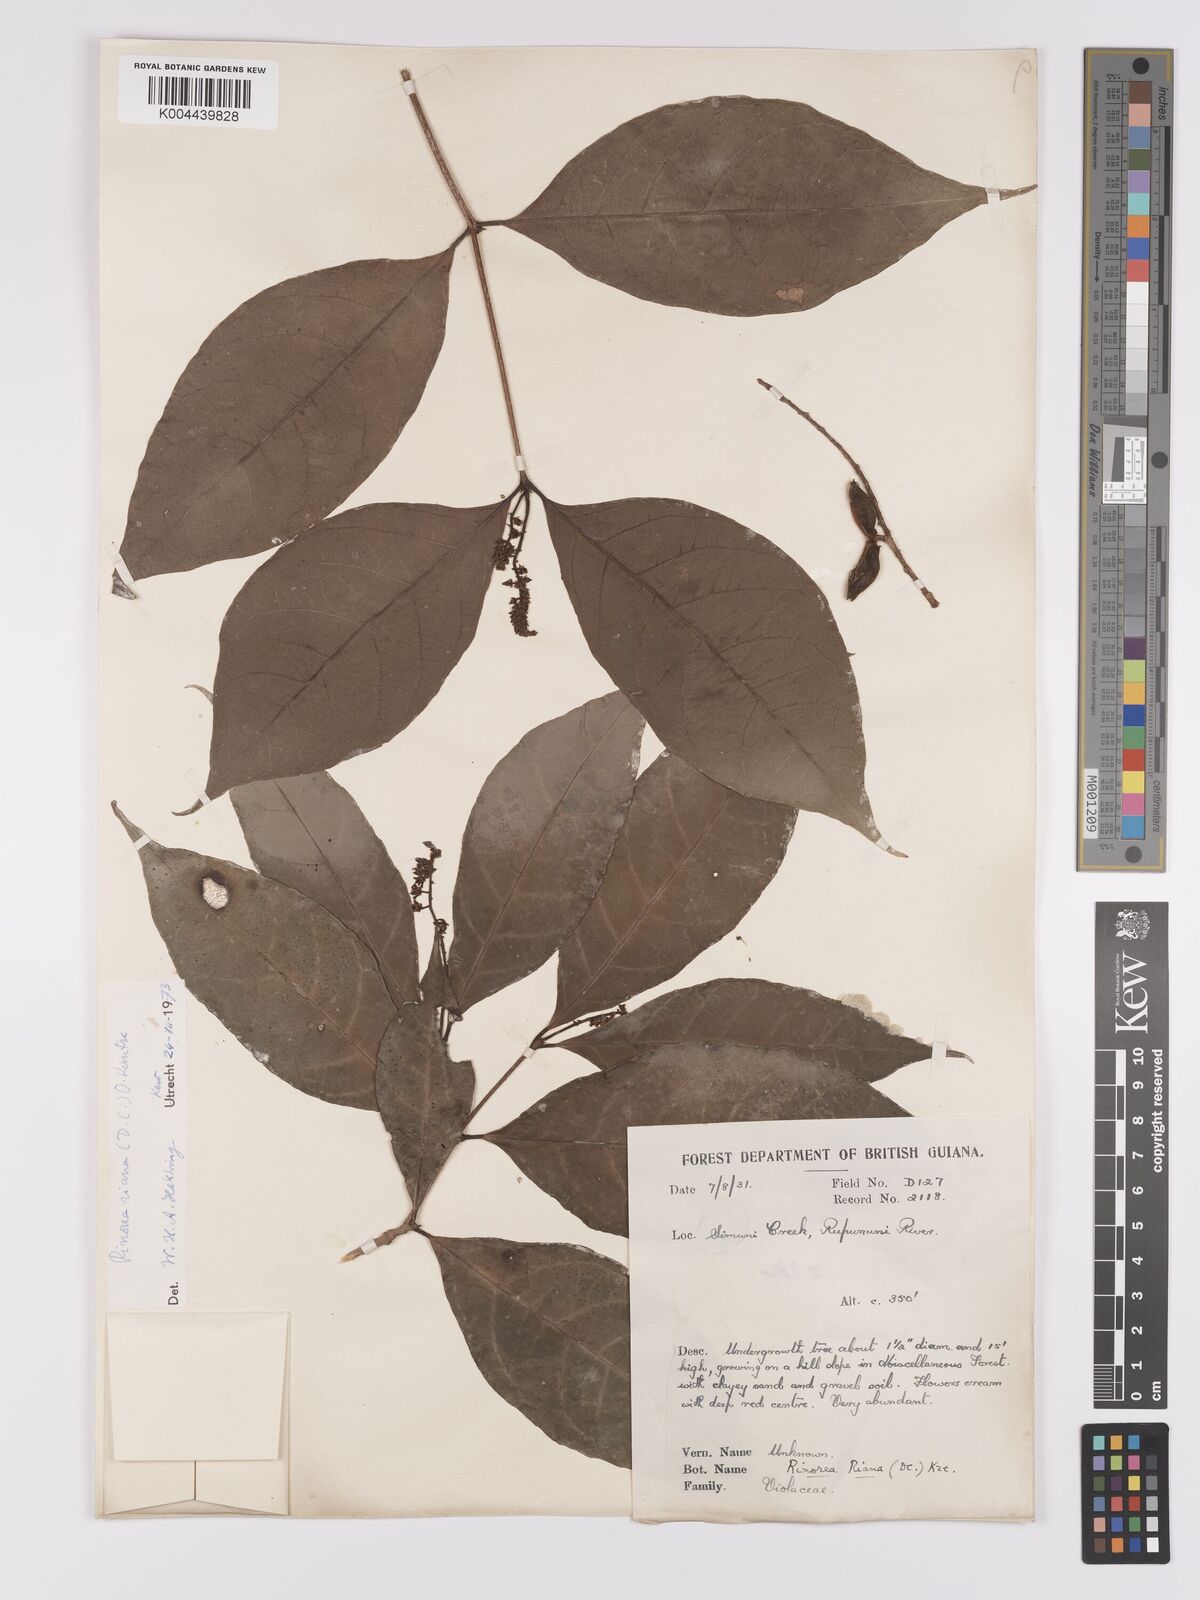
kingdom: Plantae
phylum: Tracheophyta
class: Magnoliopsida
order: Malpighiales
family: Violaceae
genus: Rinorea
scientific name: Rinorea riana
